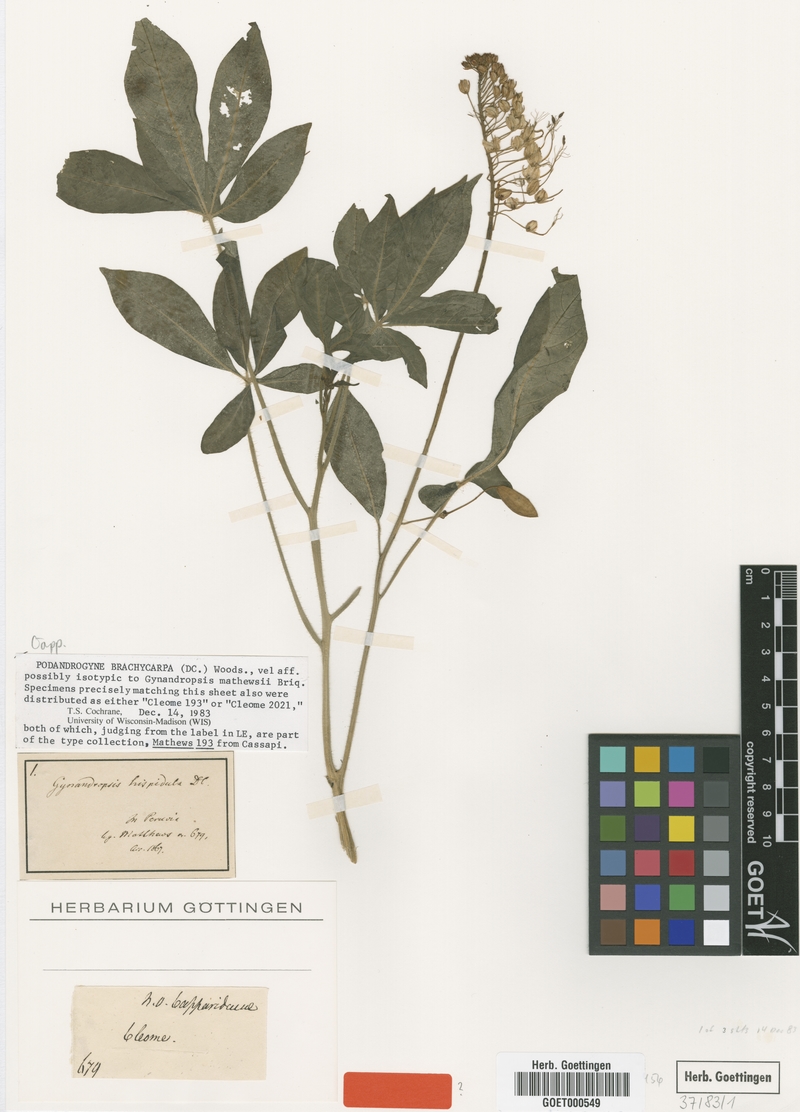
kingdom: Plantae
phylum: Tracheophyta
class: Magnoliopsida
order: Brassicales
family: Cleomaceae
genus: Podandrogyne
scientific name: Podandrogyne hispidula
